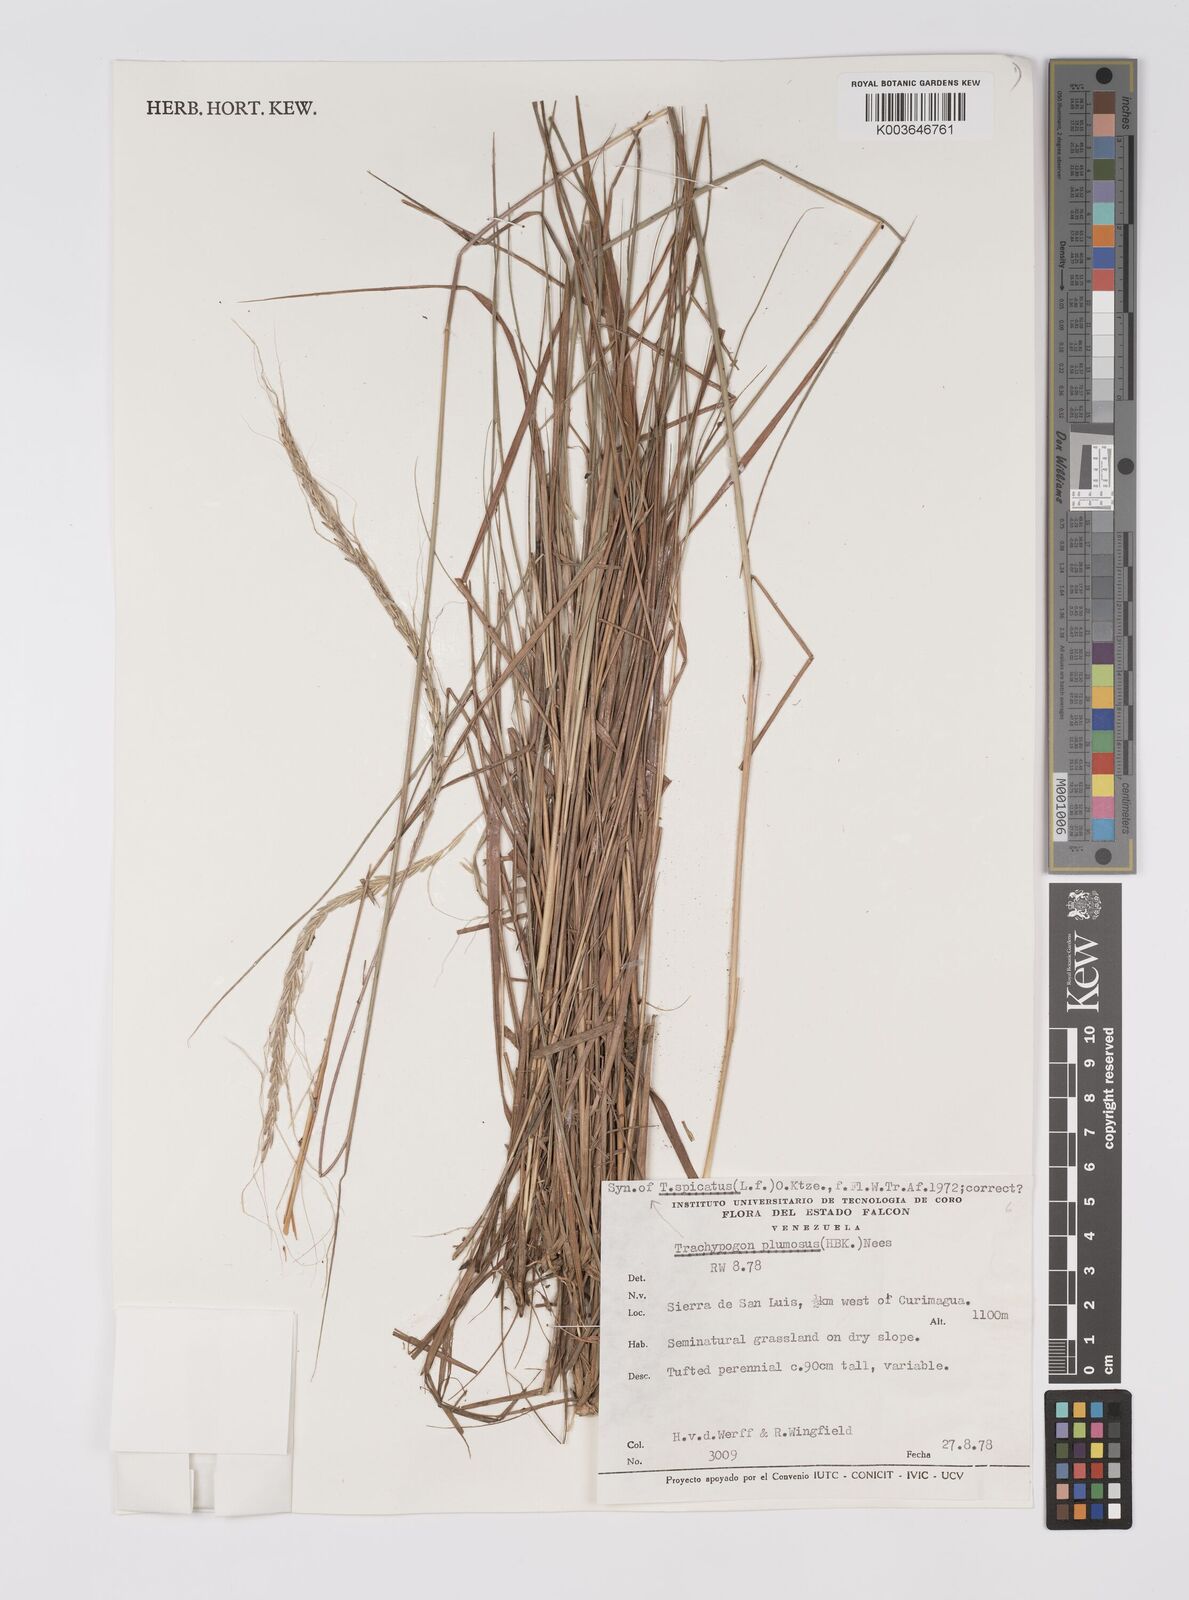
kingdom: Plantae
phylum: Tracheophyta
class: Liliopsida
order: Poales
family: Poaceae
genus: Trachypogon
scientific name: Trachypogon spicatus
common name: Crinkle-awn
